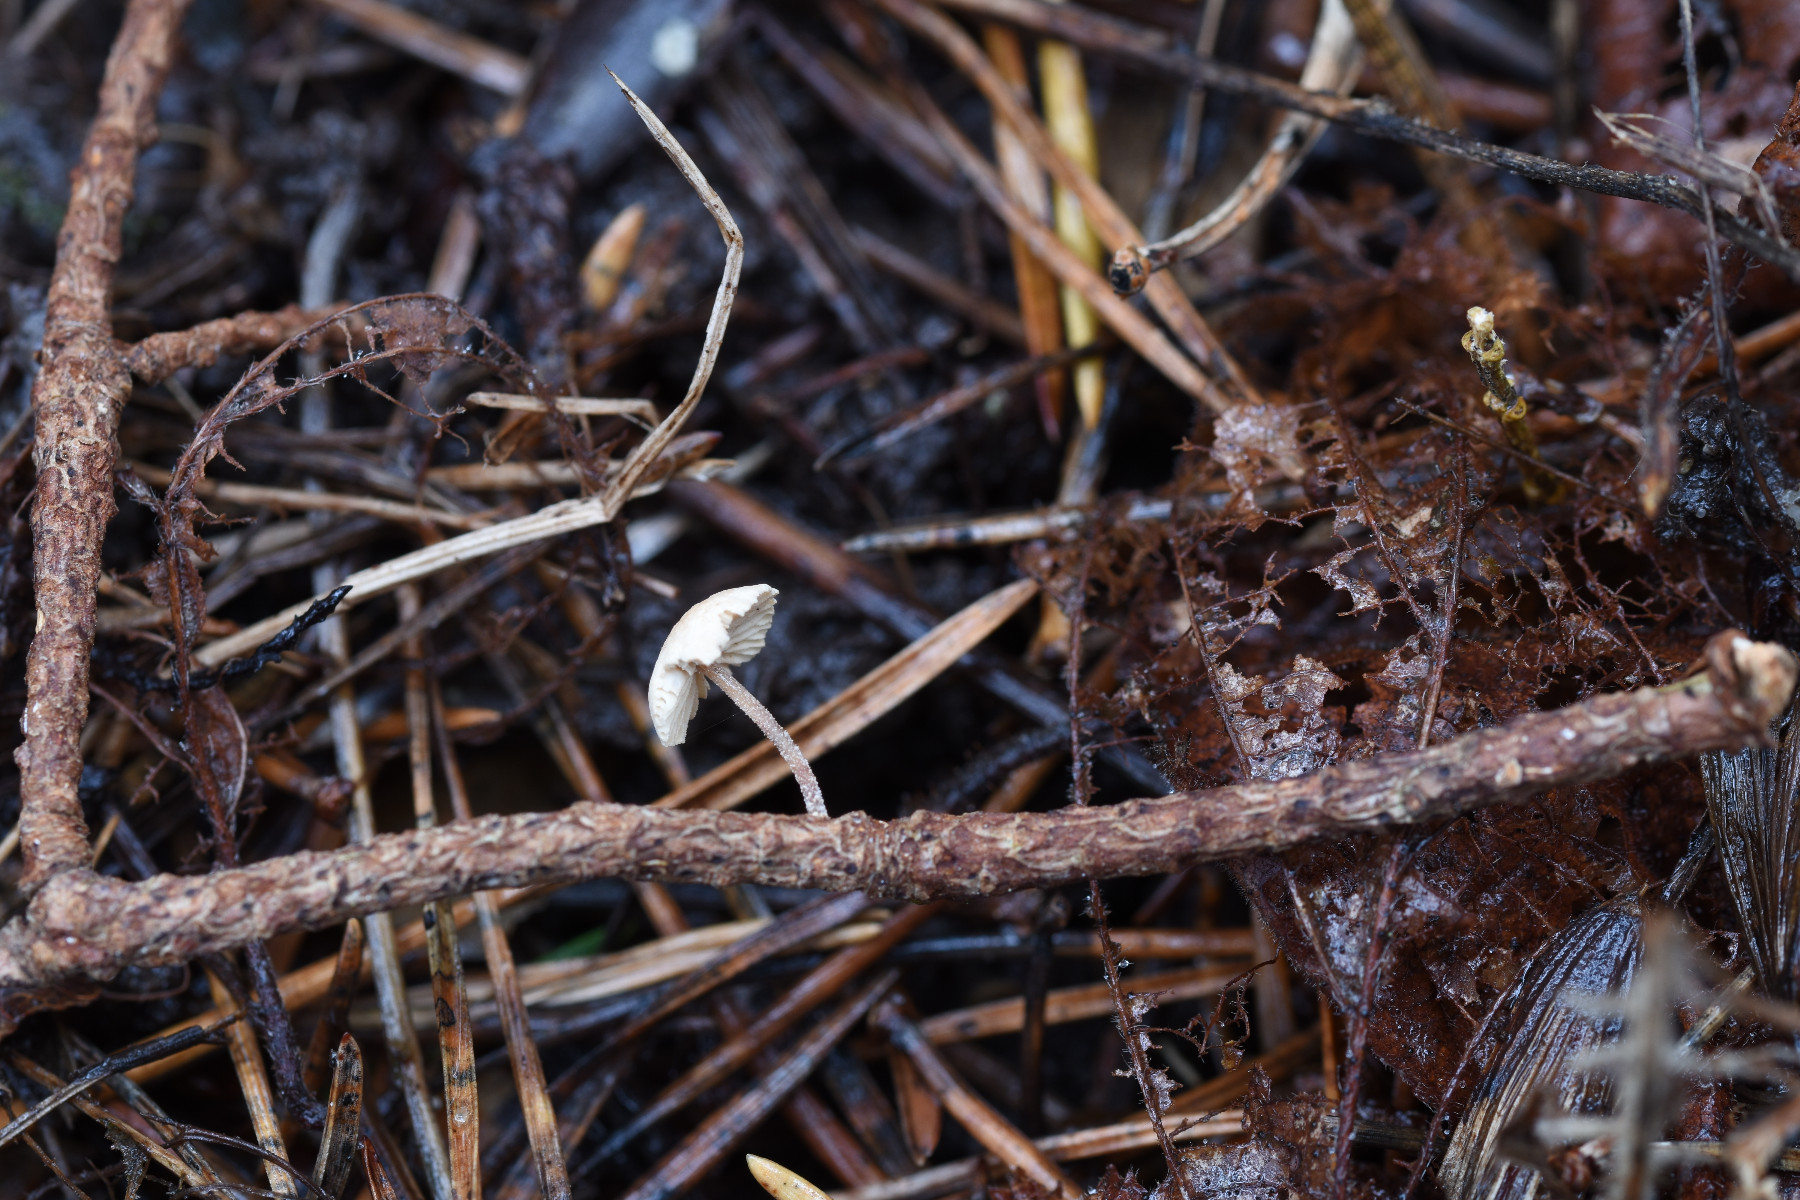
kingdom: Fungi
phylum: Basidiomycota
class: Agaricomycetes
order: Agaricales
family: Omphalotaceae
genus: Collybiopsis
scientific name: Collybiopsis ramealis
